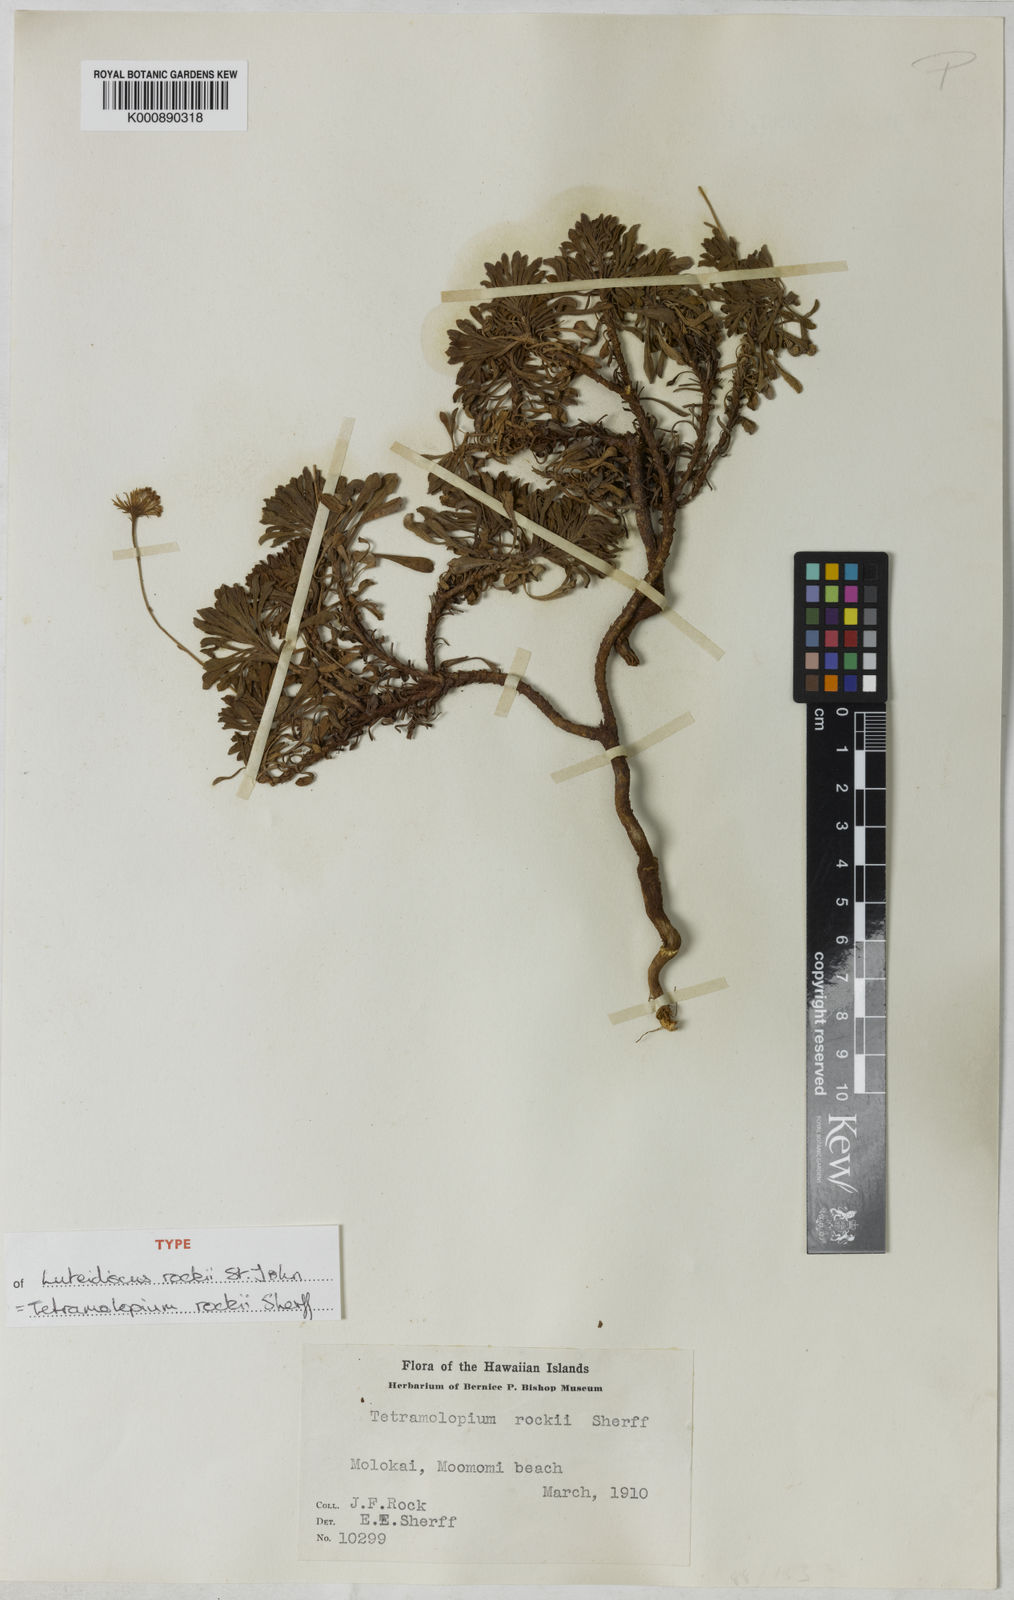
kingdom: Plantae
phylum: Tracheophyta
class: Magnoliopsida
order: Asterales
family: Asteraceae
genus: Tetramolopium
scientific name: Tetramolopium rockii
